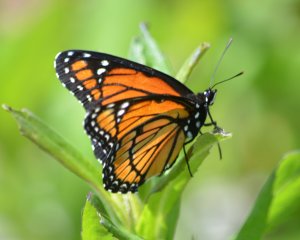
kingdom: Animalia
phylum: Arthropoda
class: Insecta
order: Lepidoptera
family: Nymphalidae
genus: Limenitis
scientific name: Limenitis archippus
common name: Viceroy
